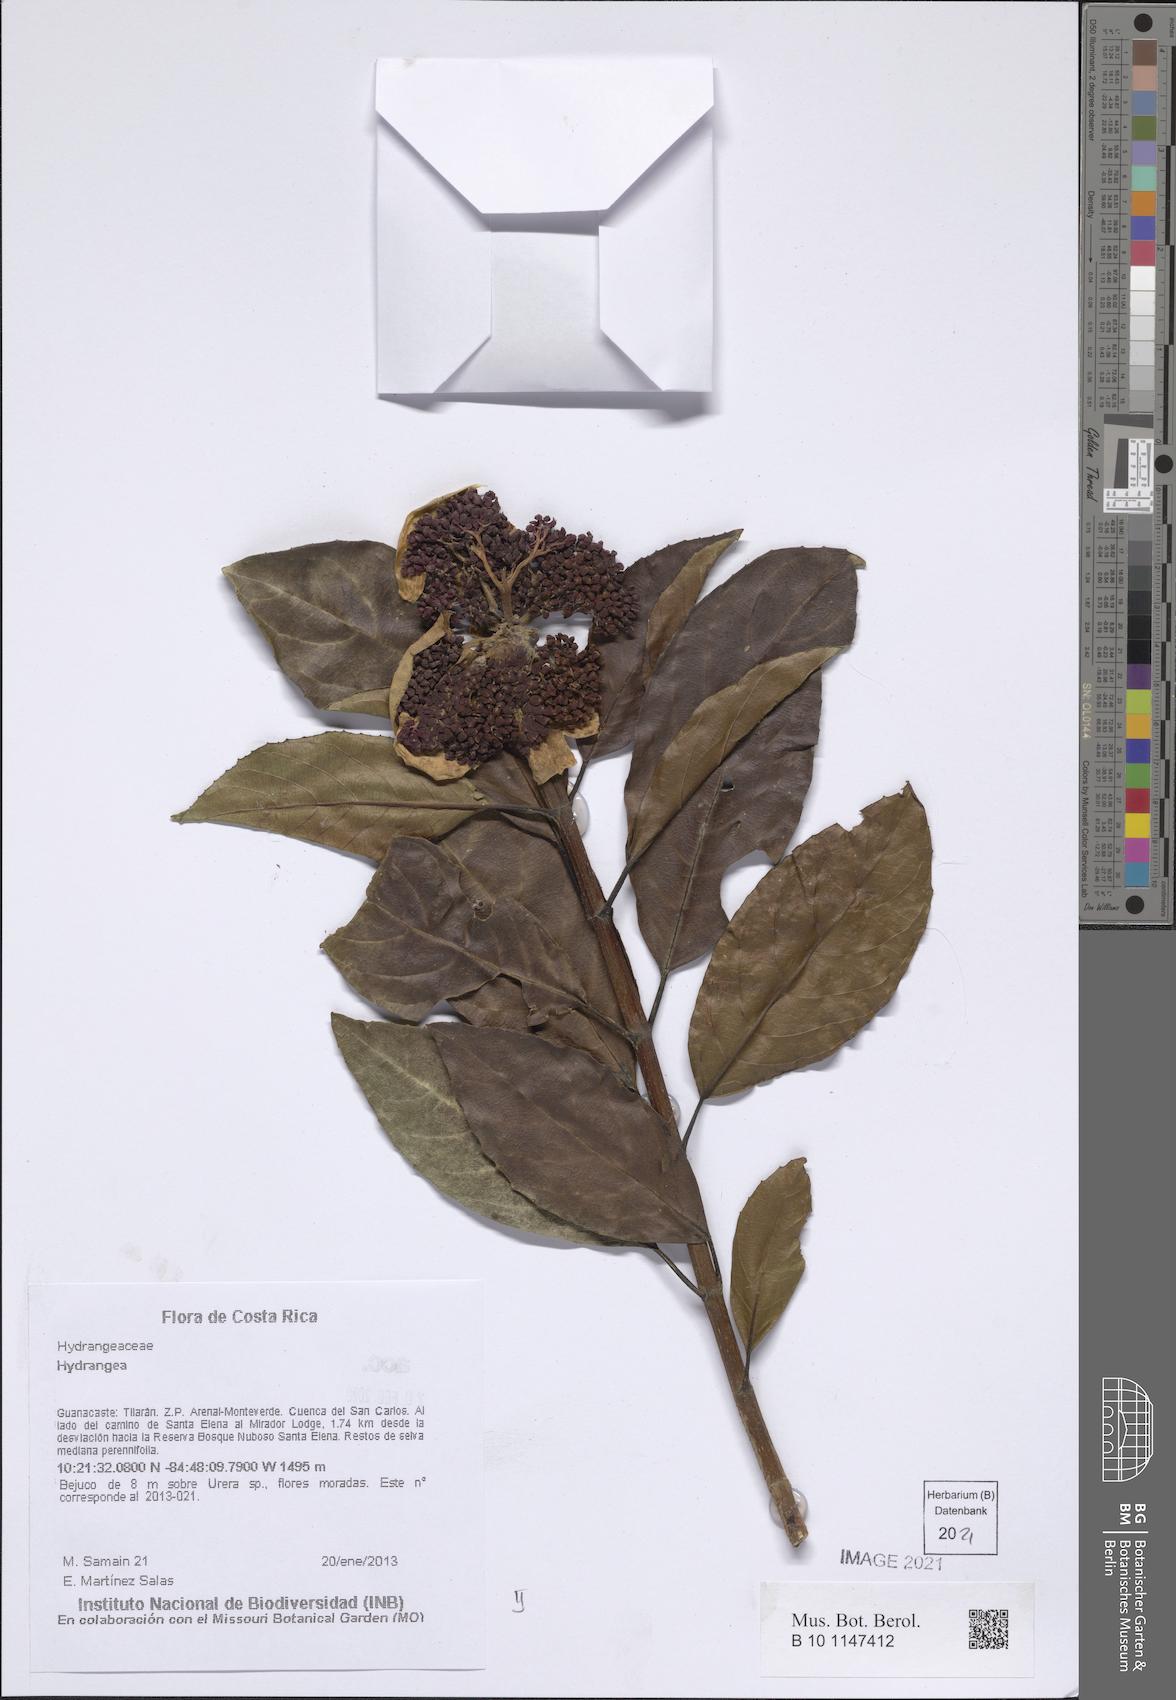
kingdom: Plantae
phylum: Tracheophyta
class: Magnoliopsida
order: Cornales
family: Hydrangeaceae
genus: Hydrangea
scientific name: Hydrangea
